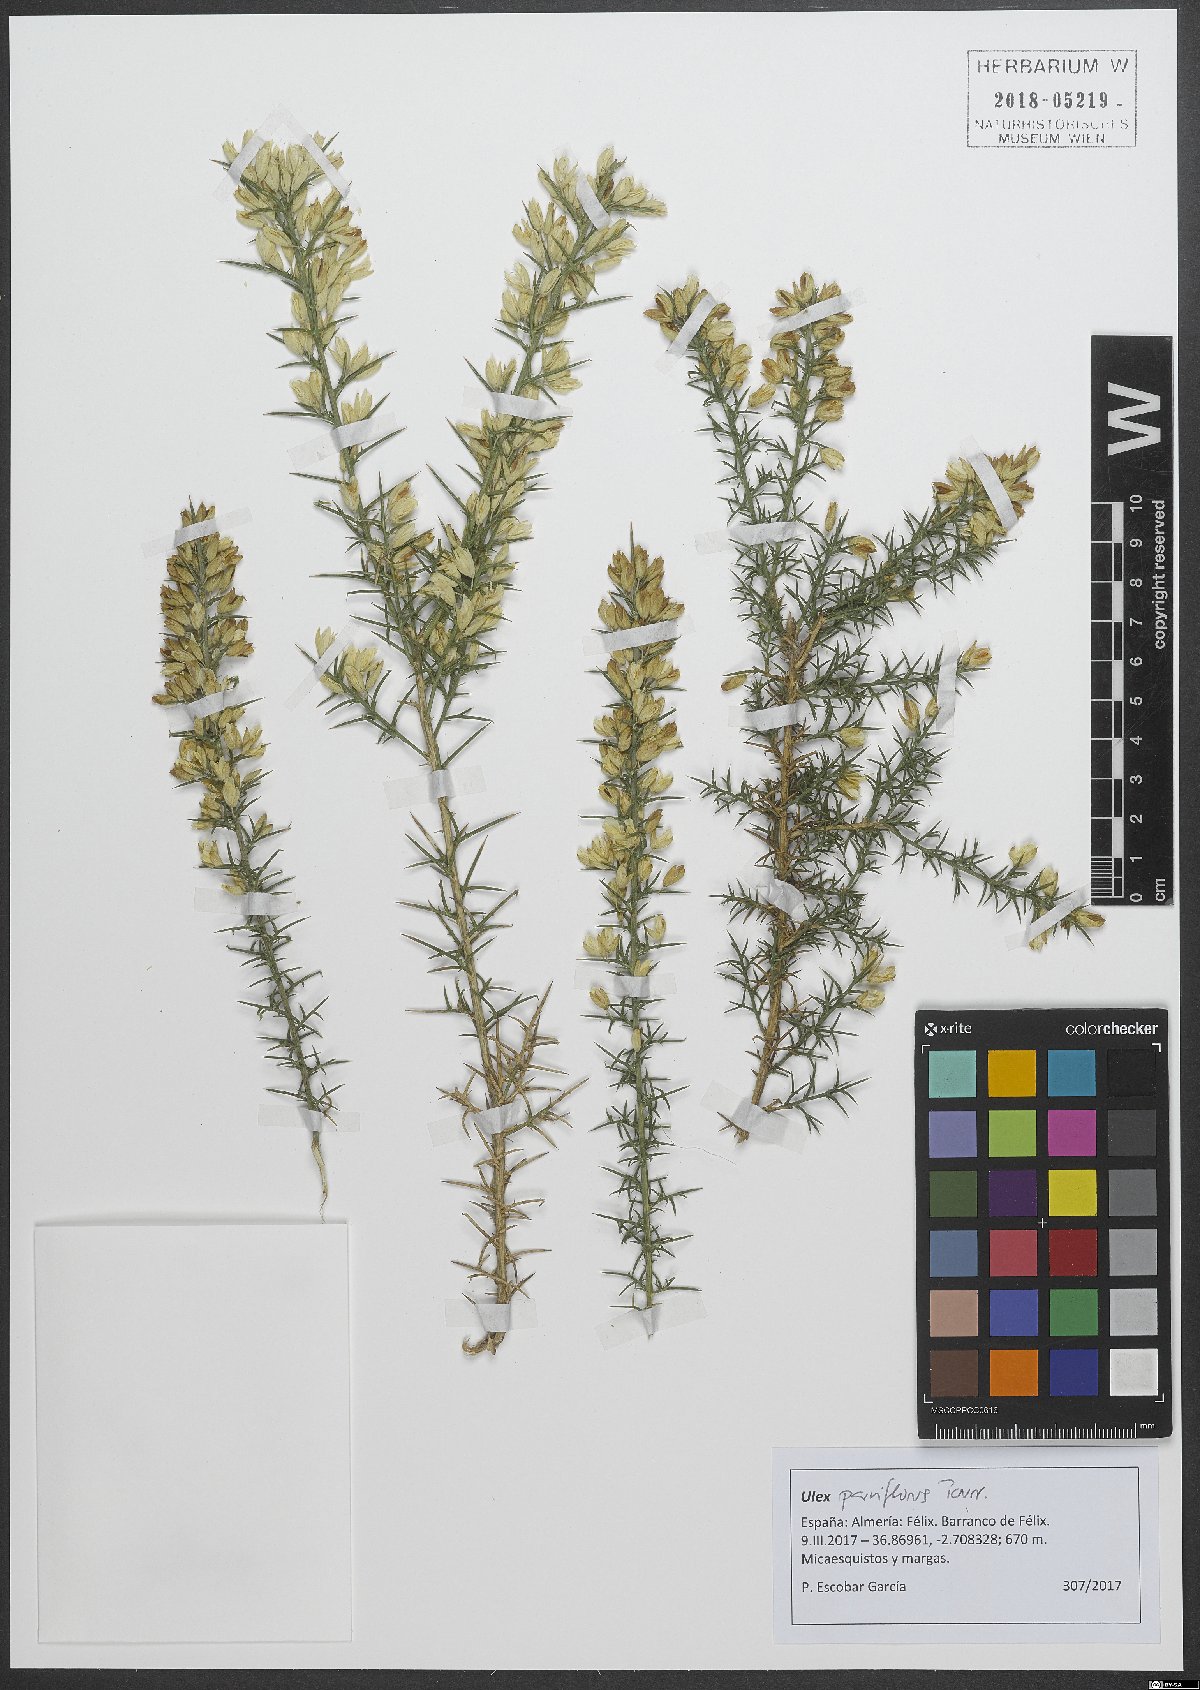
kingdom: Plantae
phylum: Tracheophyta
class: Magnoliopsida
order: Fabales
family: Fabaceae
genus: Ulex
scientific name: Ulex parviflorus
